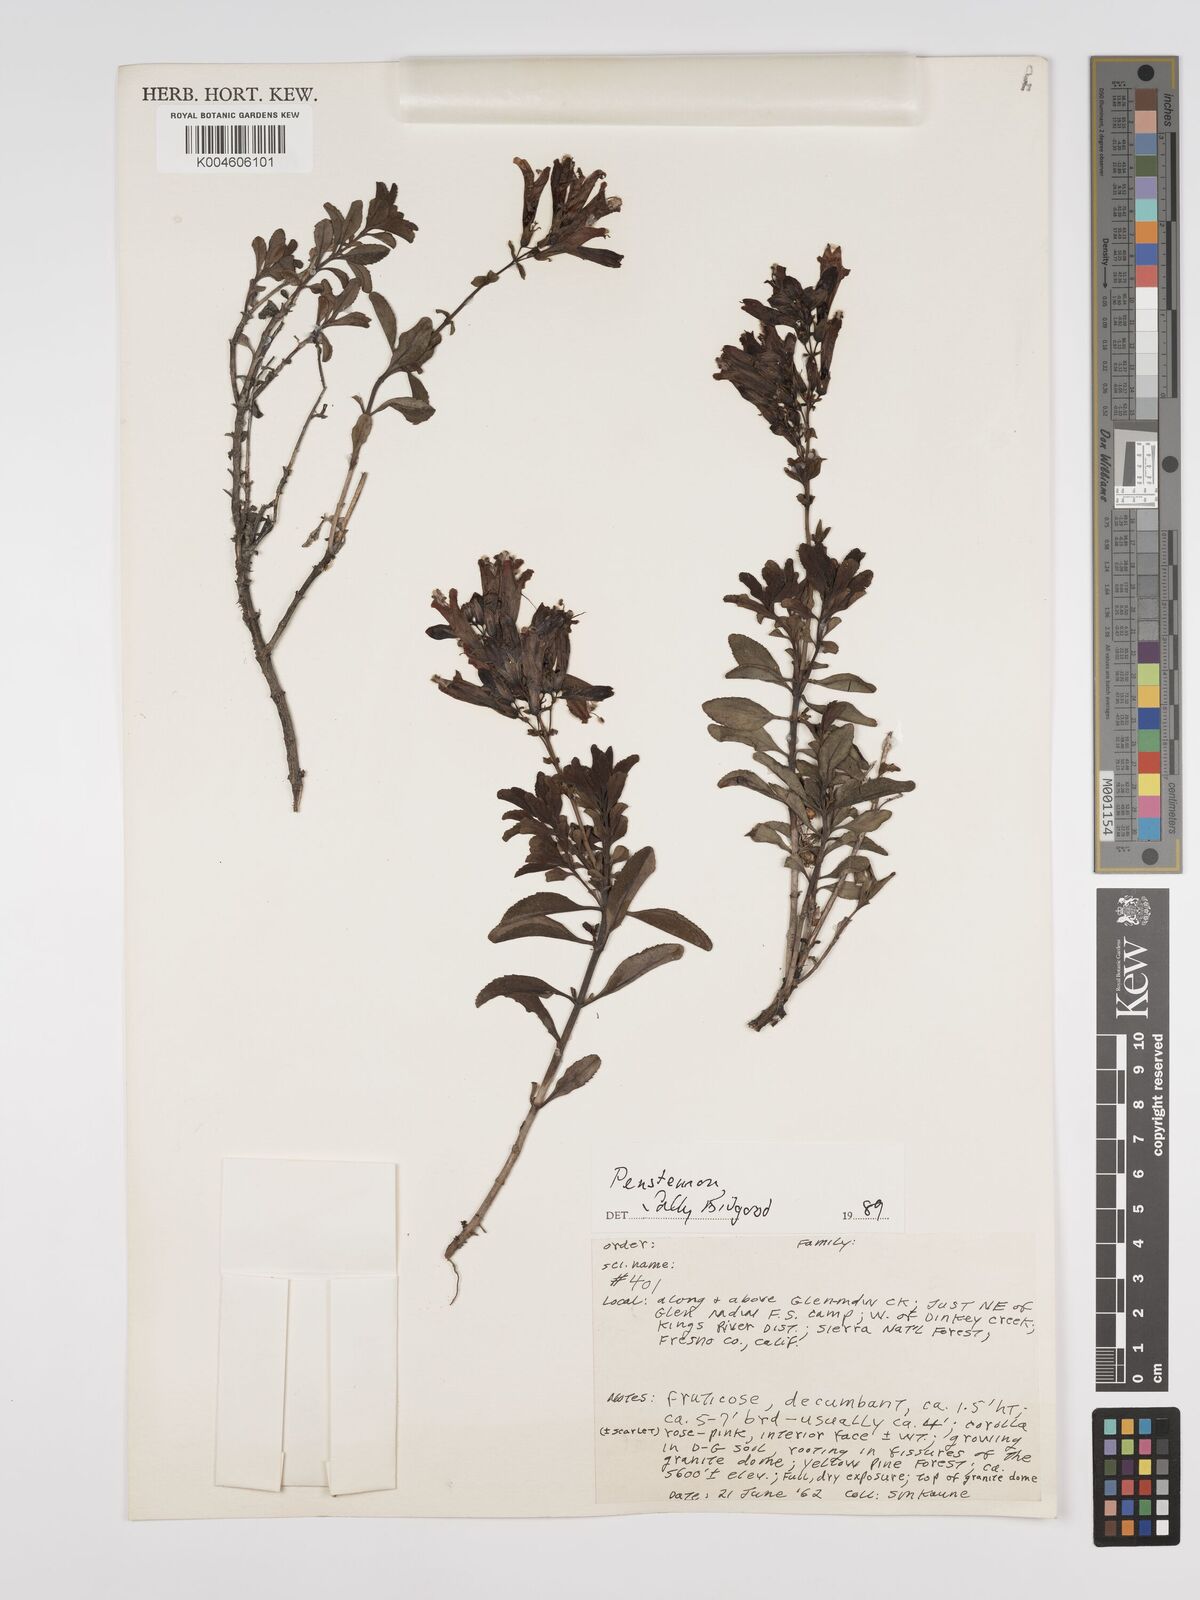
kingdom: Plantae
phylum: Tracheophyta
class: Magnoliopsida
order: Lamiales
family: Plantaginaceae
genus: Penstemon
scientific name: Penstemon
